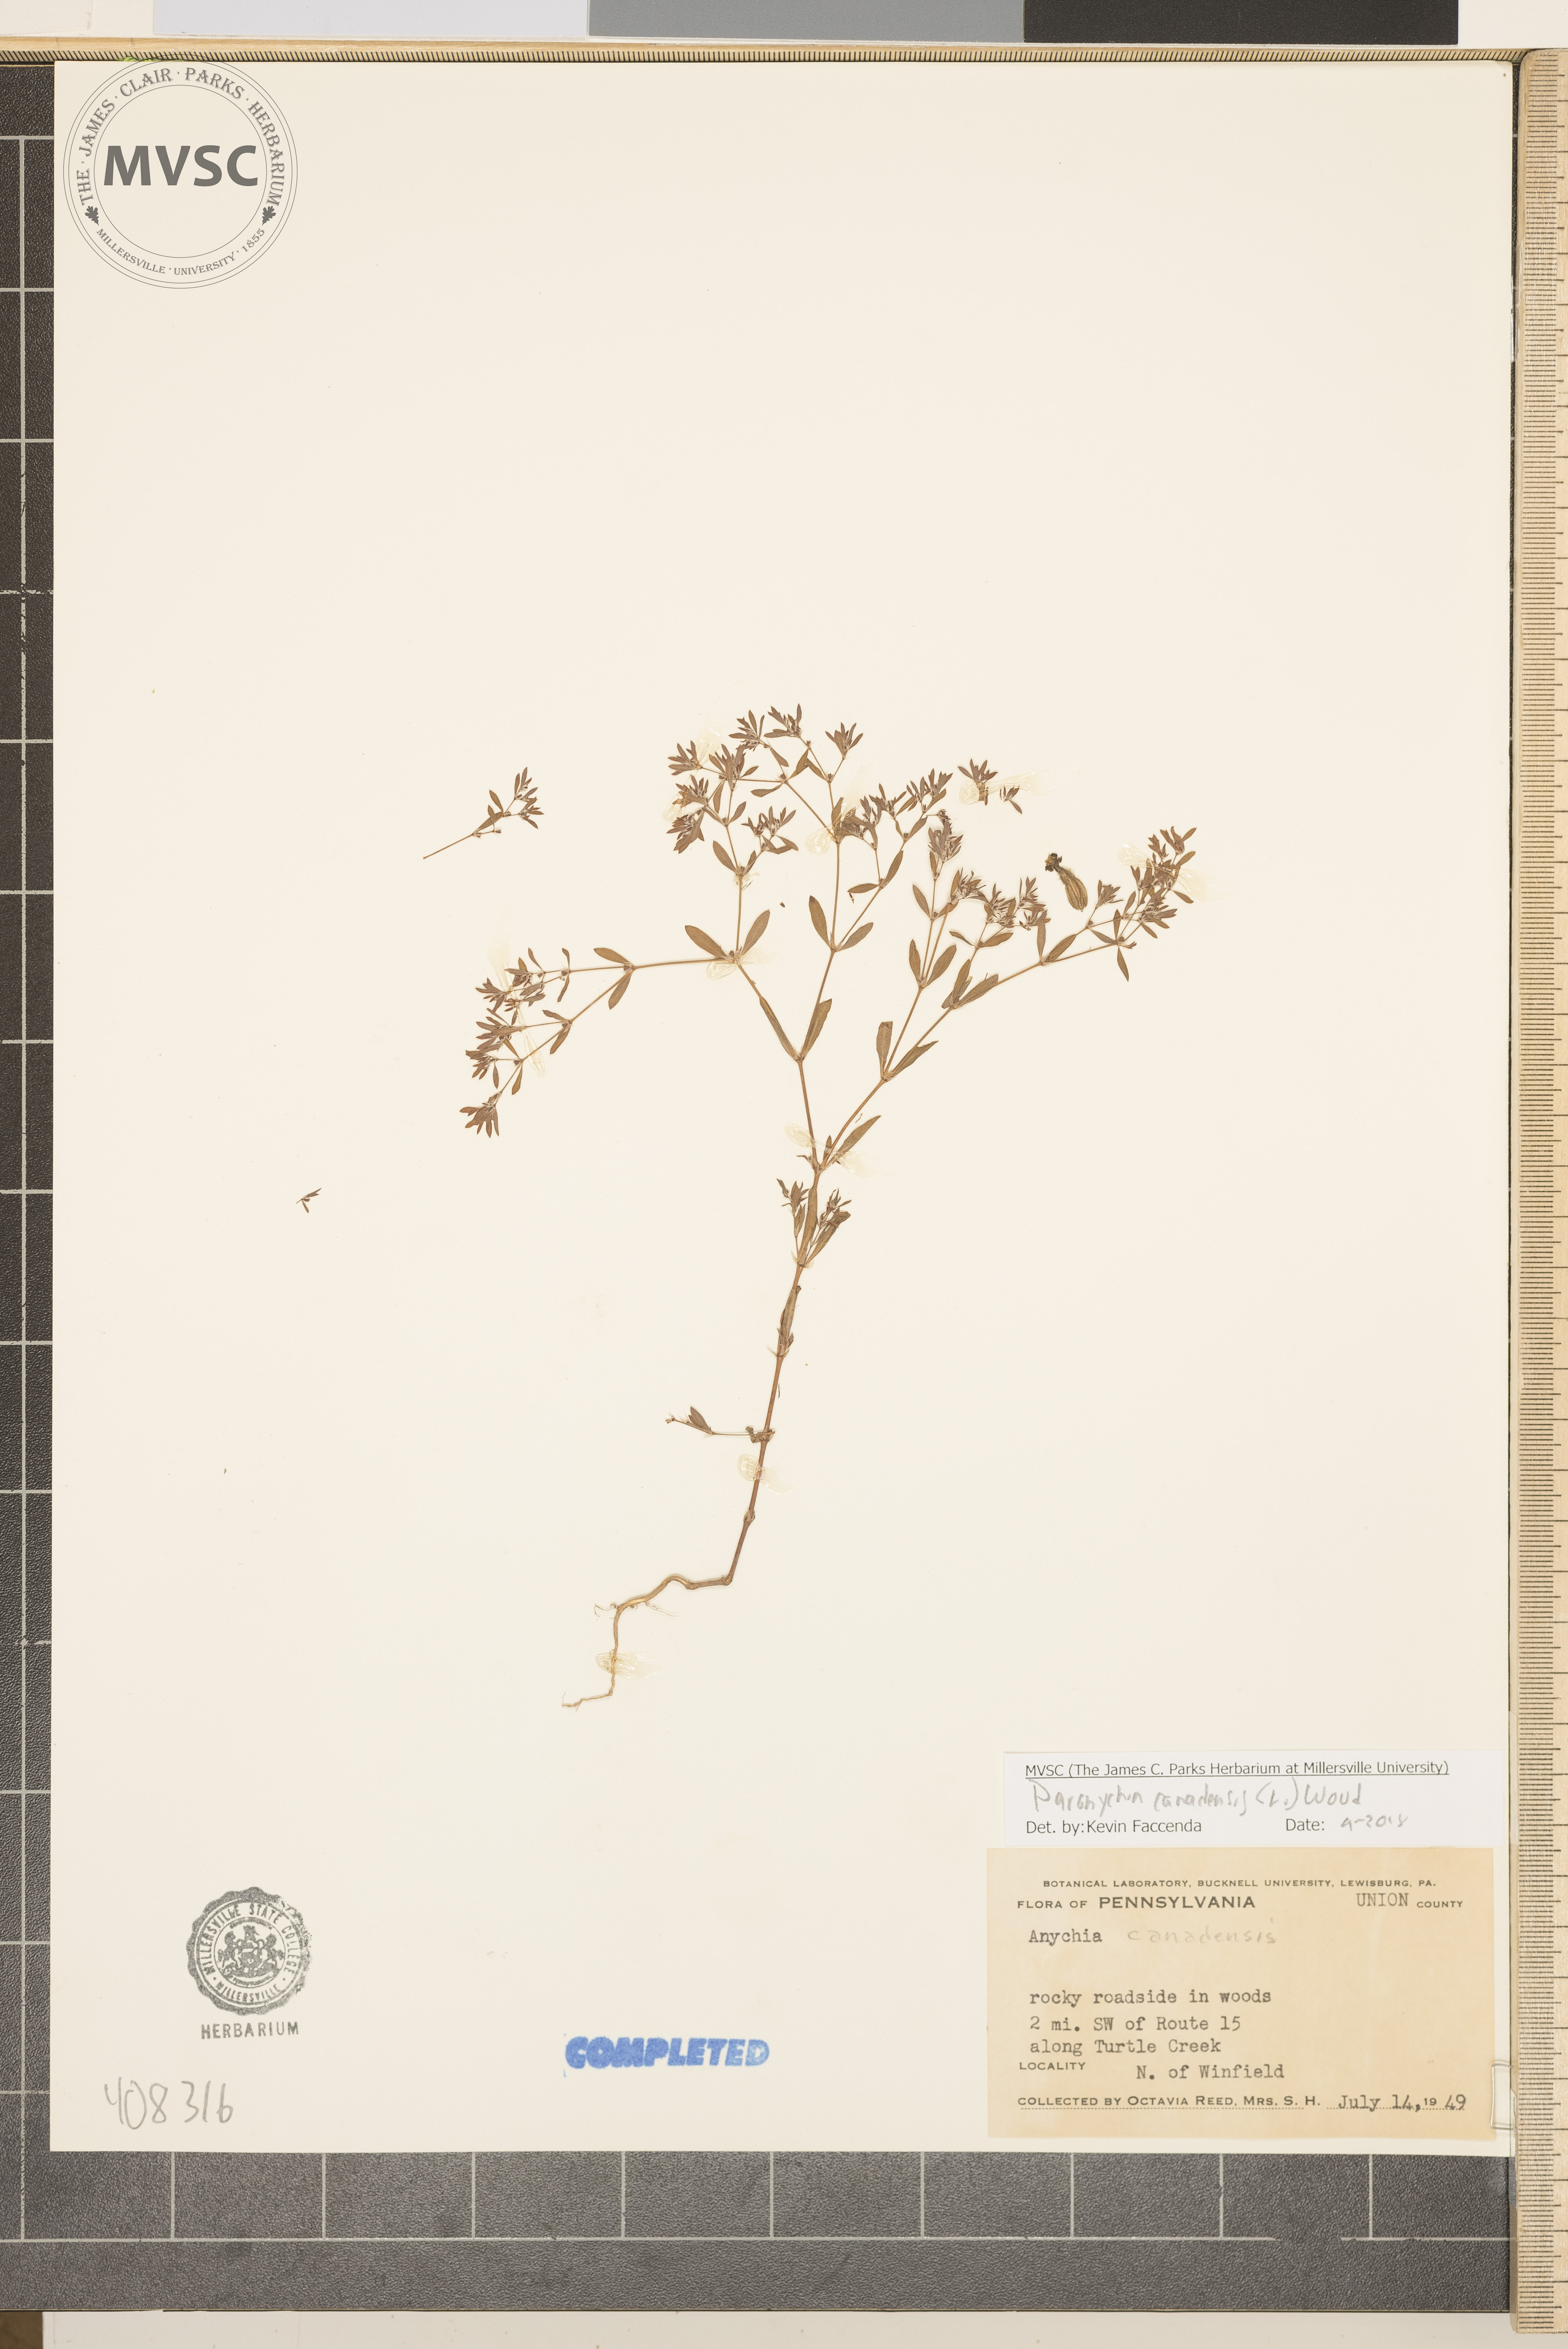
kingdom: Plantae
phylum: Tracheophyta
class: Magnoliopsida
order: Caryophyllales
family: Caryophyllaceae
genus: Paronychia
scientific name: Paronychia canadensis
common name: Canada forked nailwort
